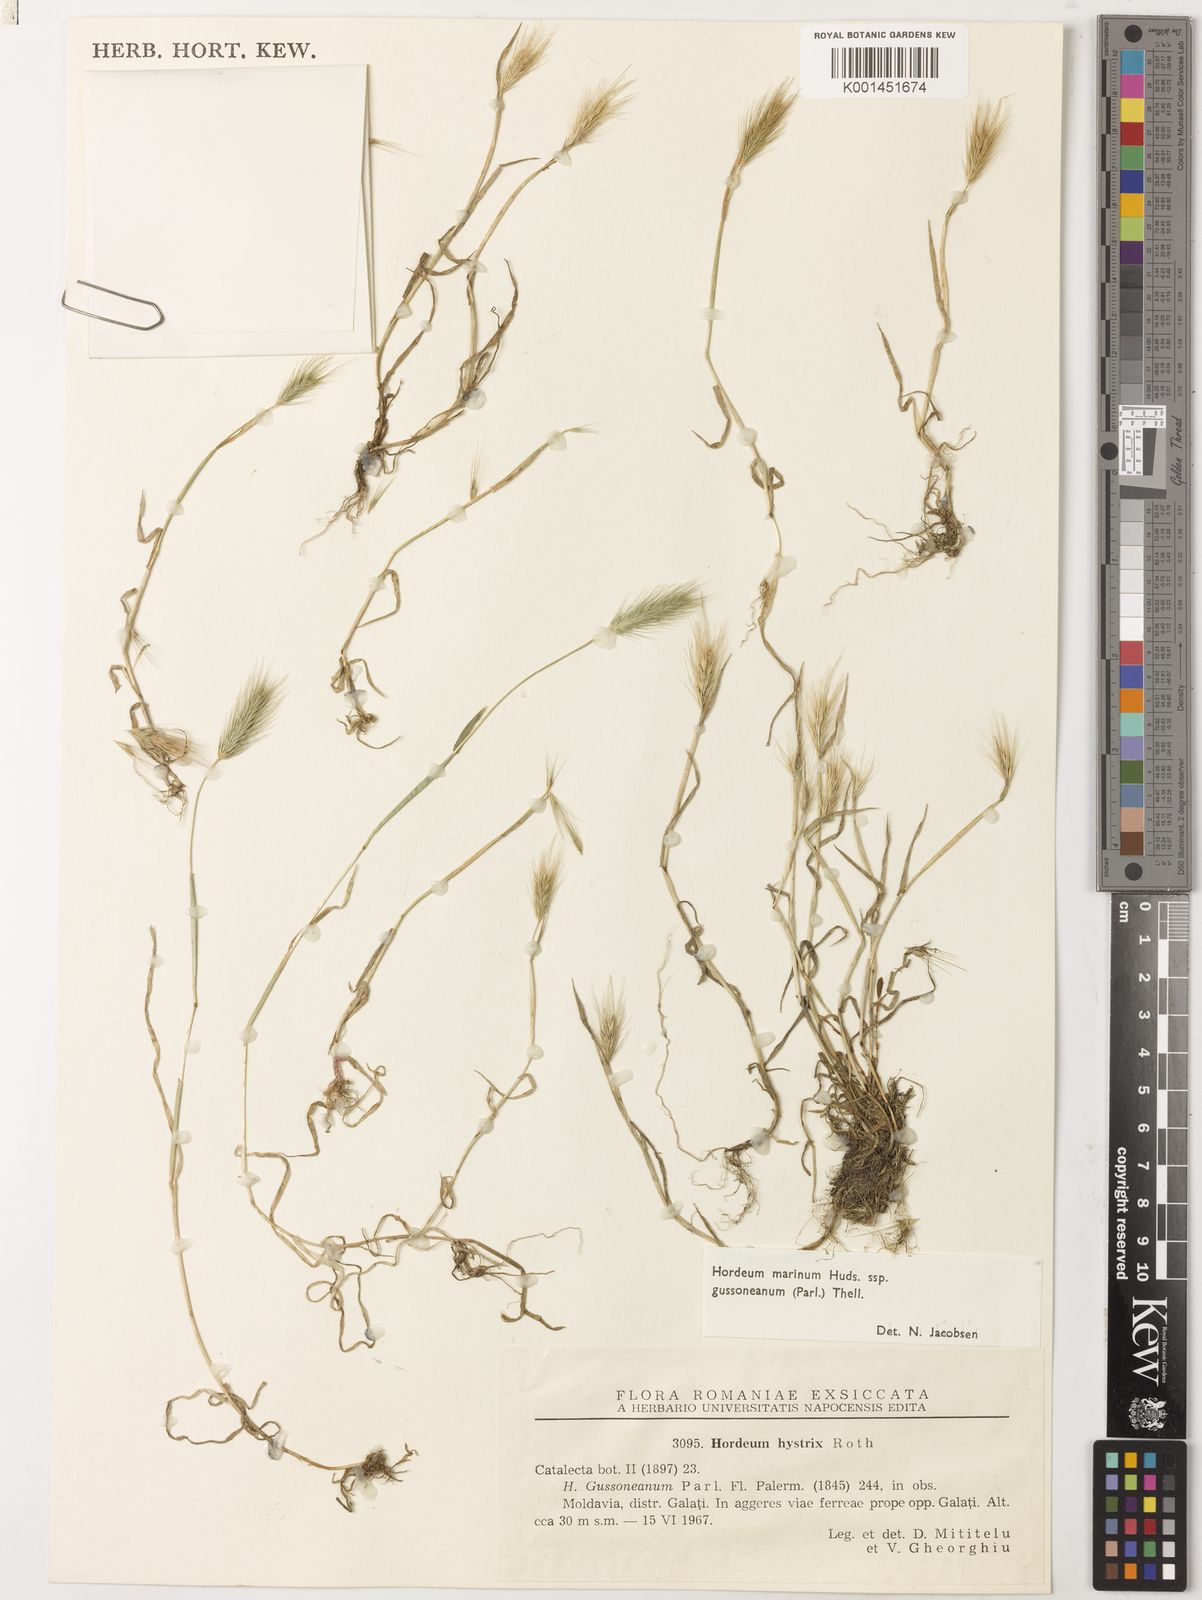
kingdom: Plantae
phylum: Tracheophyta
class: Liliopsida
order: Poales
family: Poaceae
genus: Hordeum
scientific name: Hordeum marinum
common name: Sea barley
